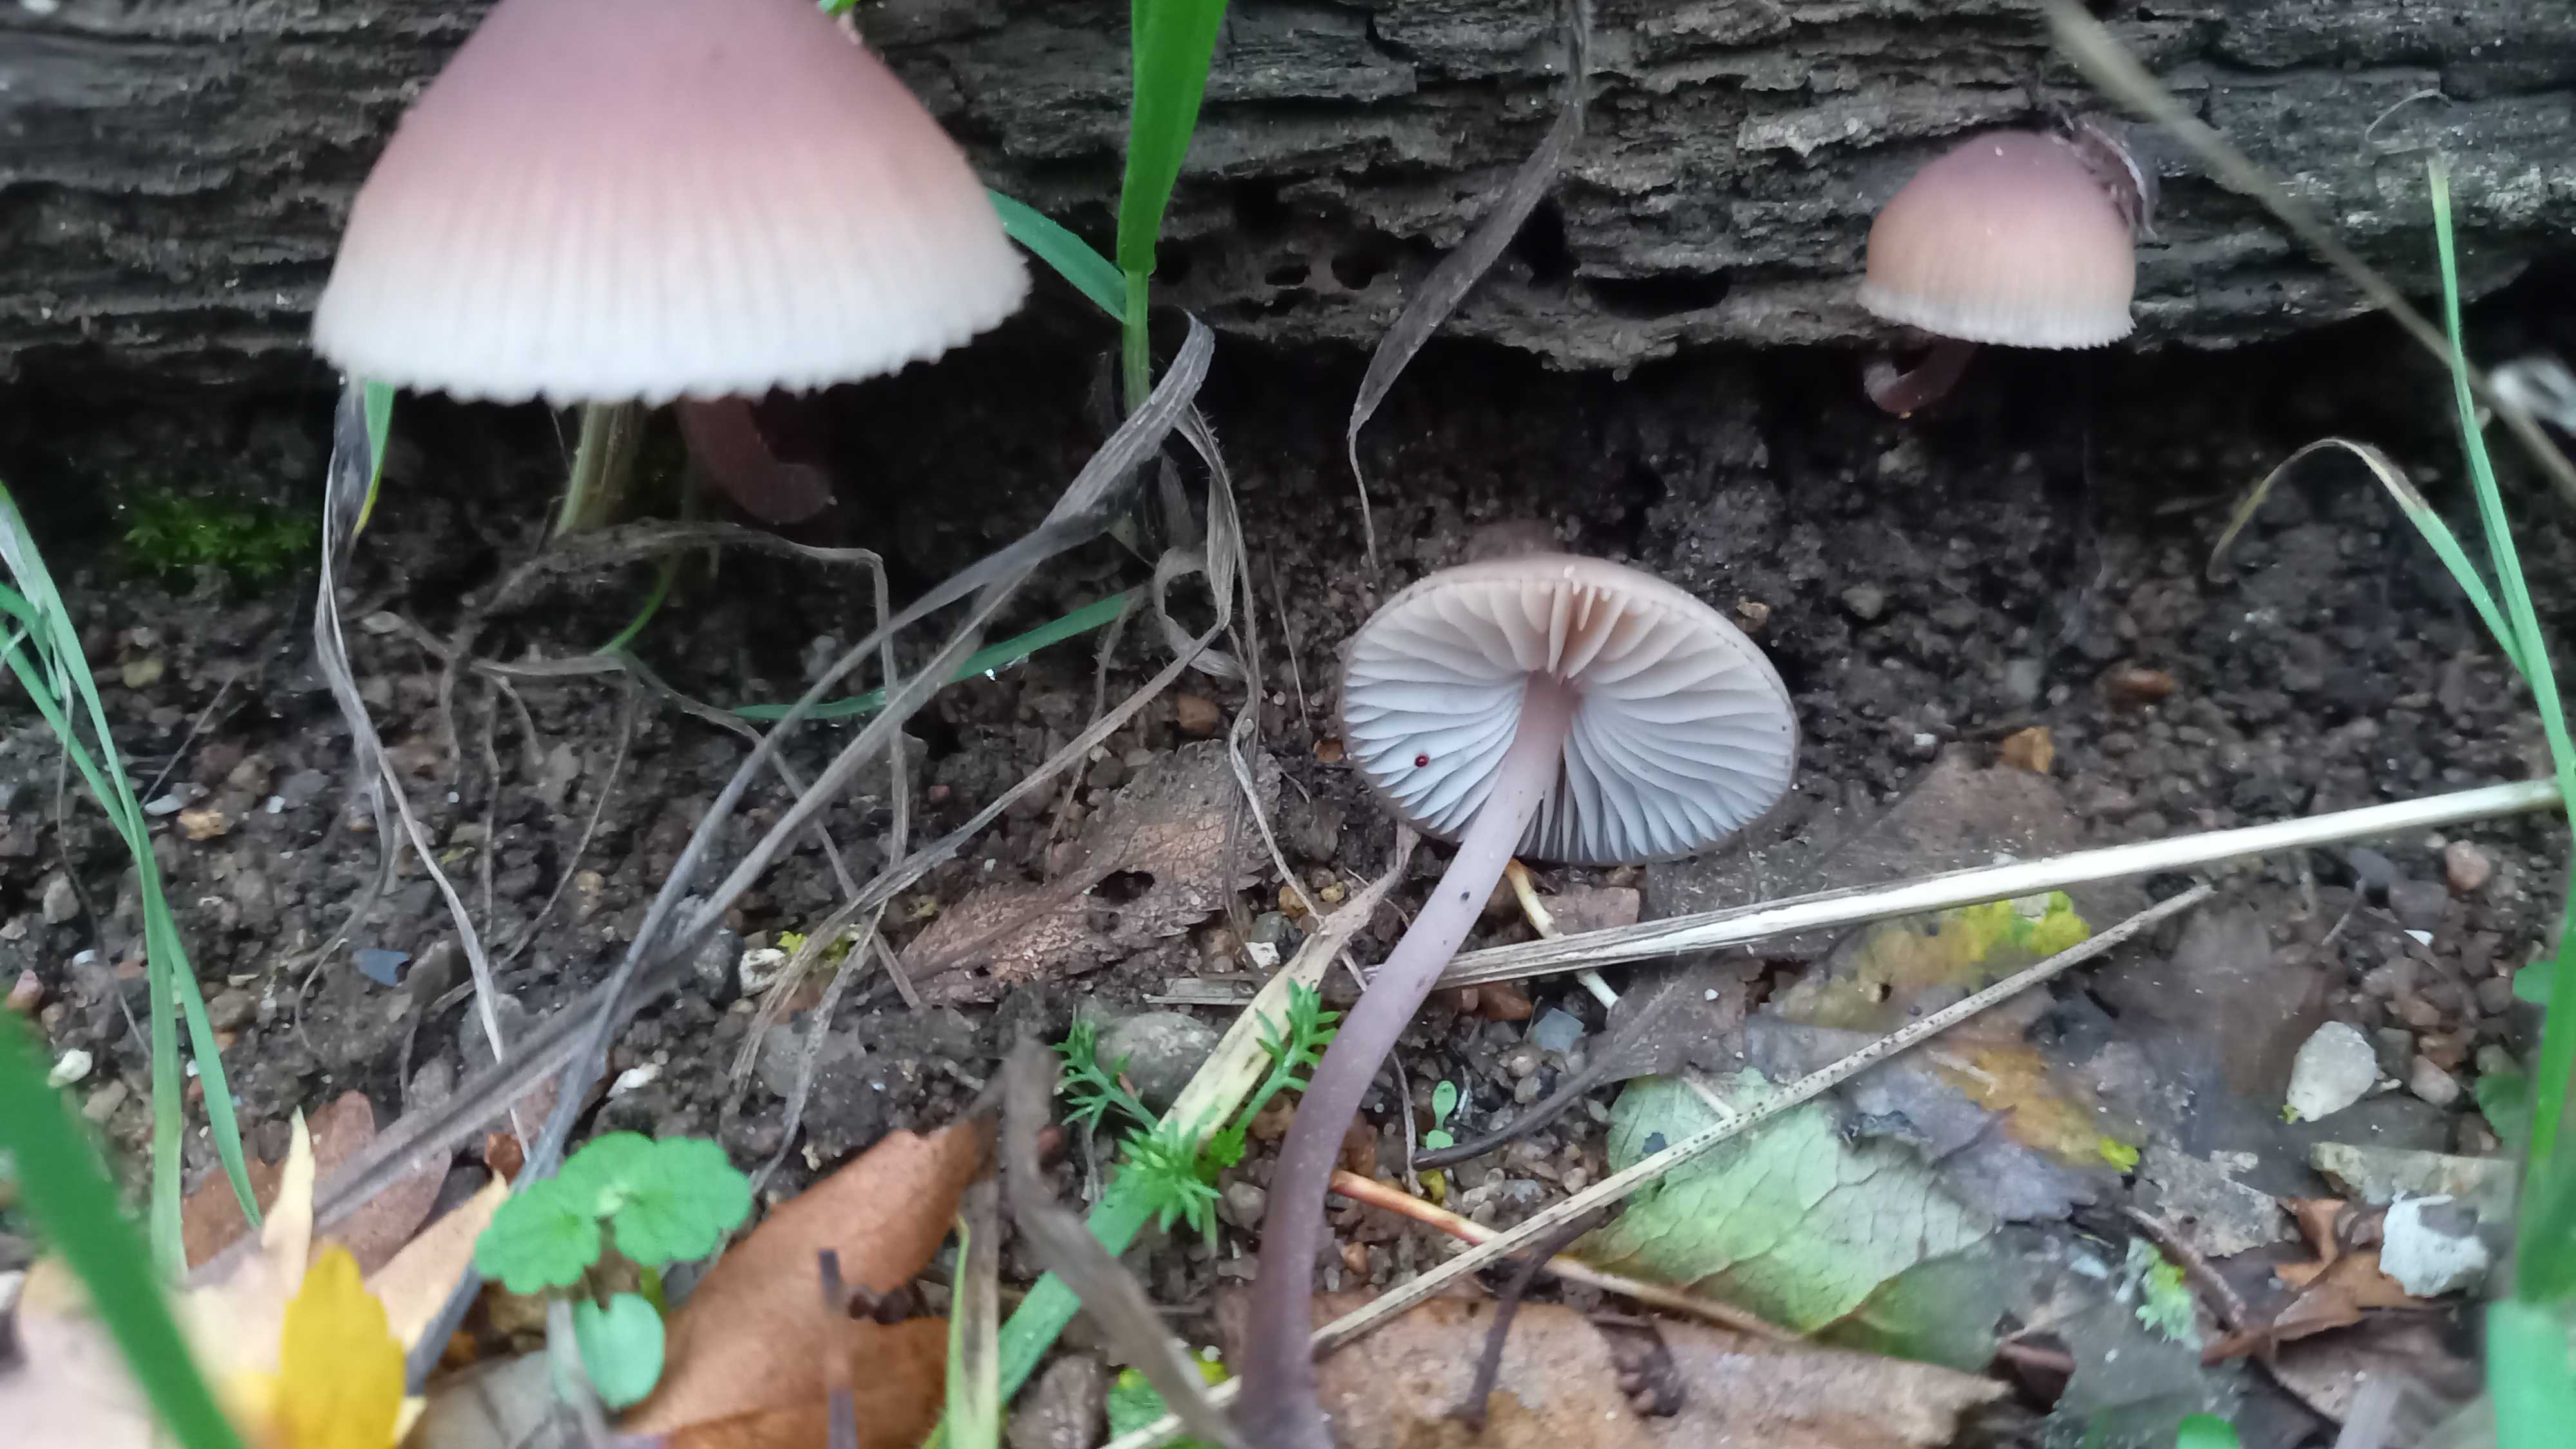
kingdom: Fungi
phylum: Basidiomycota
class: Agaricomycetes
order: Agaricales
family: Mycenaceae
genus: Mycena
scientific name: Mycena haematopus
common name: blødende huesvamp
